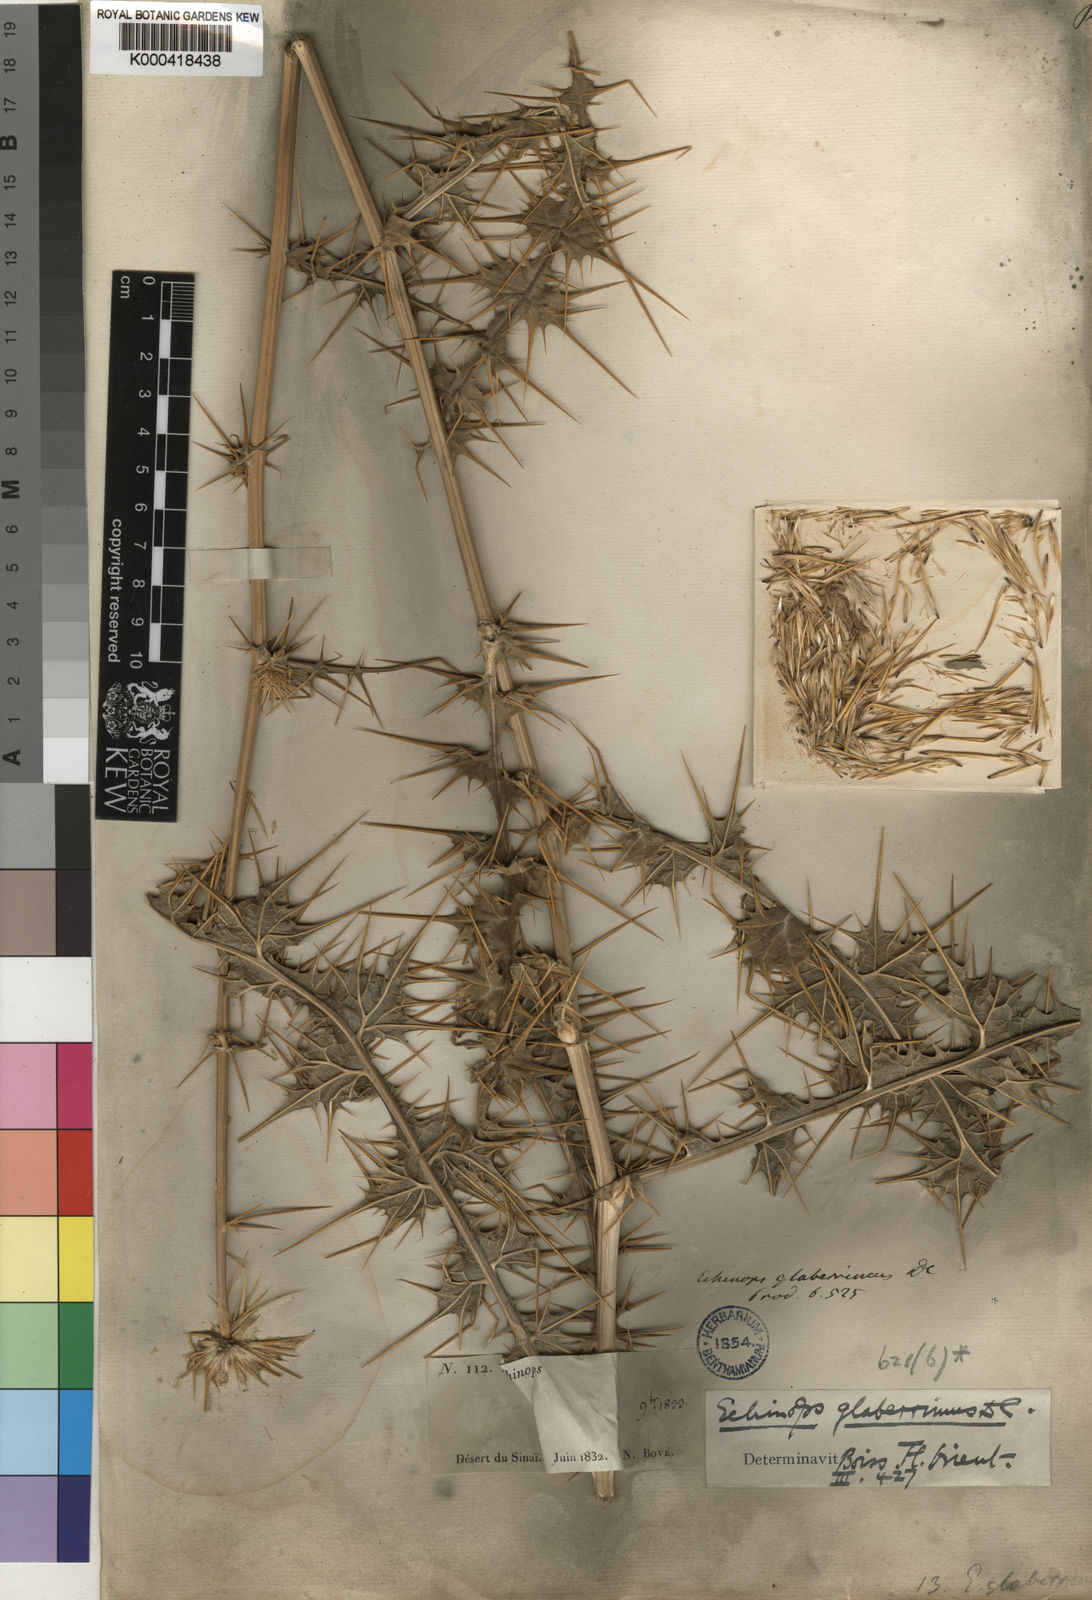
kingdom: Plantae
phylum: Tracheophyta
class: Magnoliopsida
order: Asterales
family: Asteraceae
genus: Echinops
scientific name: Echinops glaberrimus
